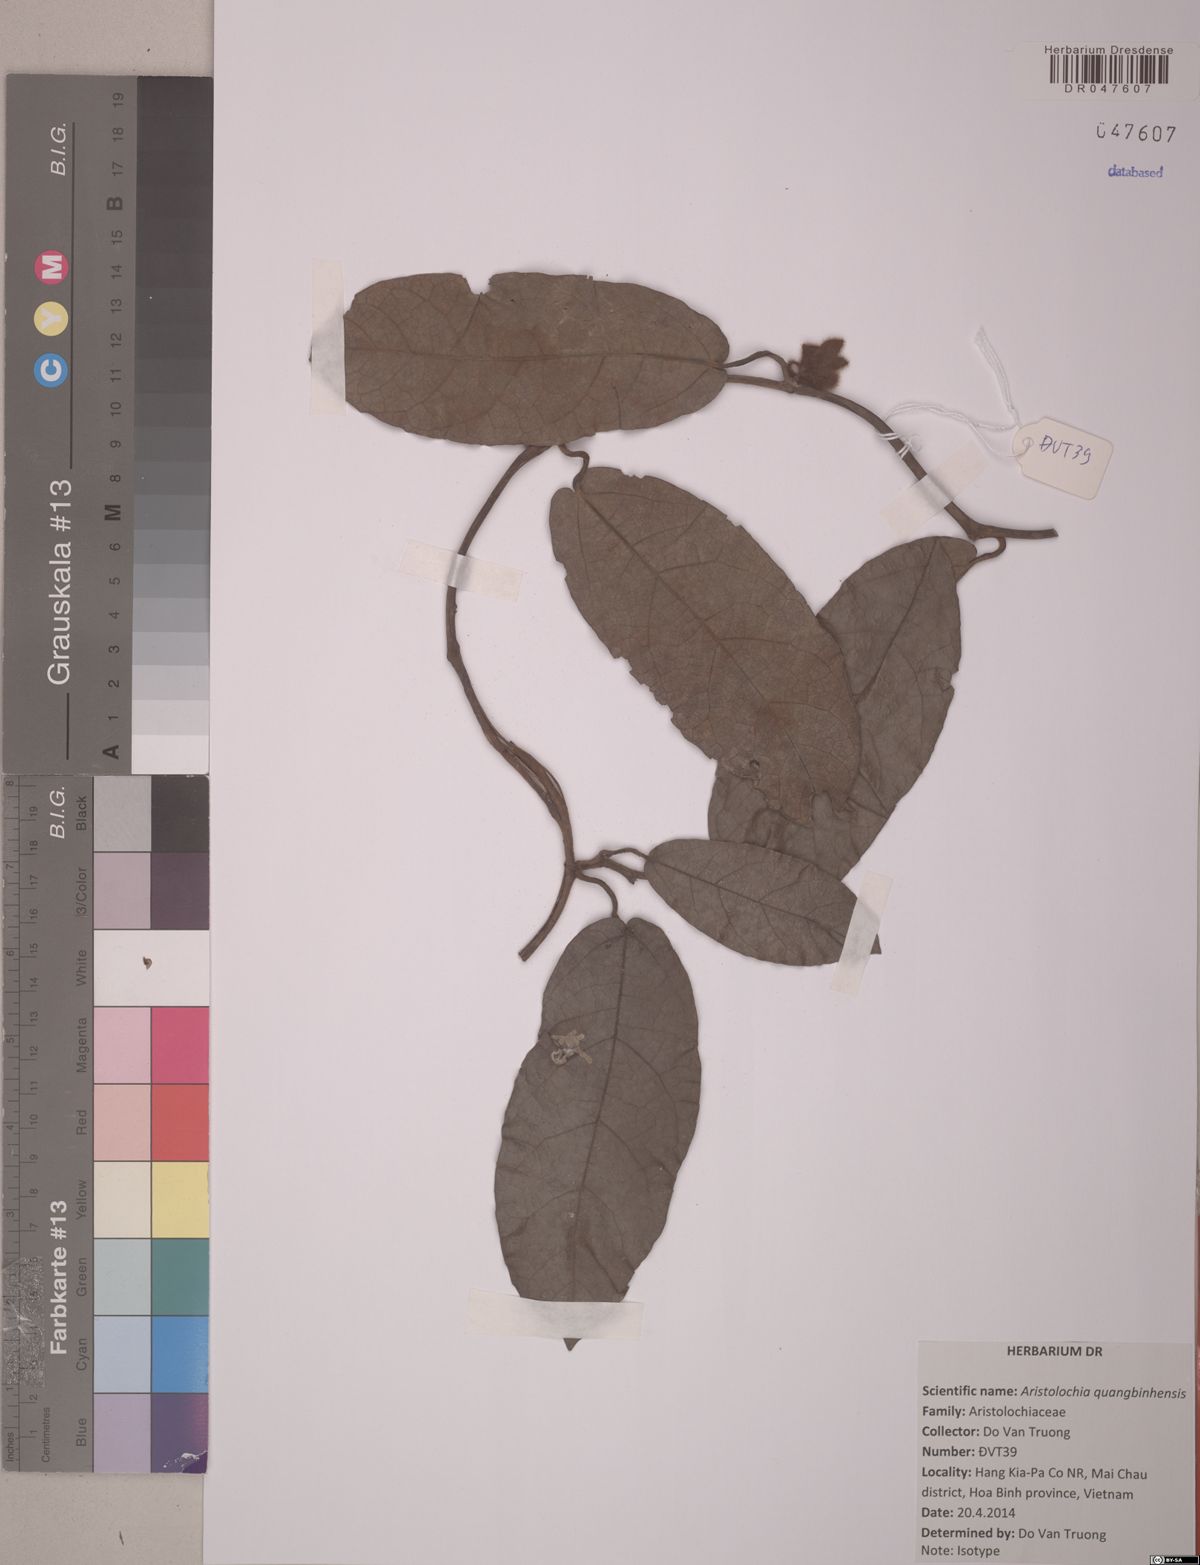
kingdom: Plantae
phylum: Tracheophyta
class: Magnoliopsida
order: Piperales
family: Aristolochiaceae
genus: Isotrema
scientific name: Isotrema quangbinhense
